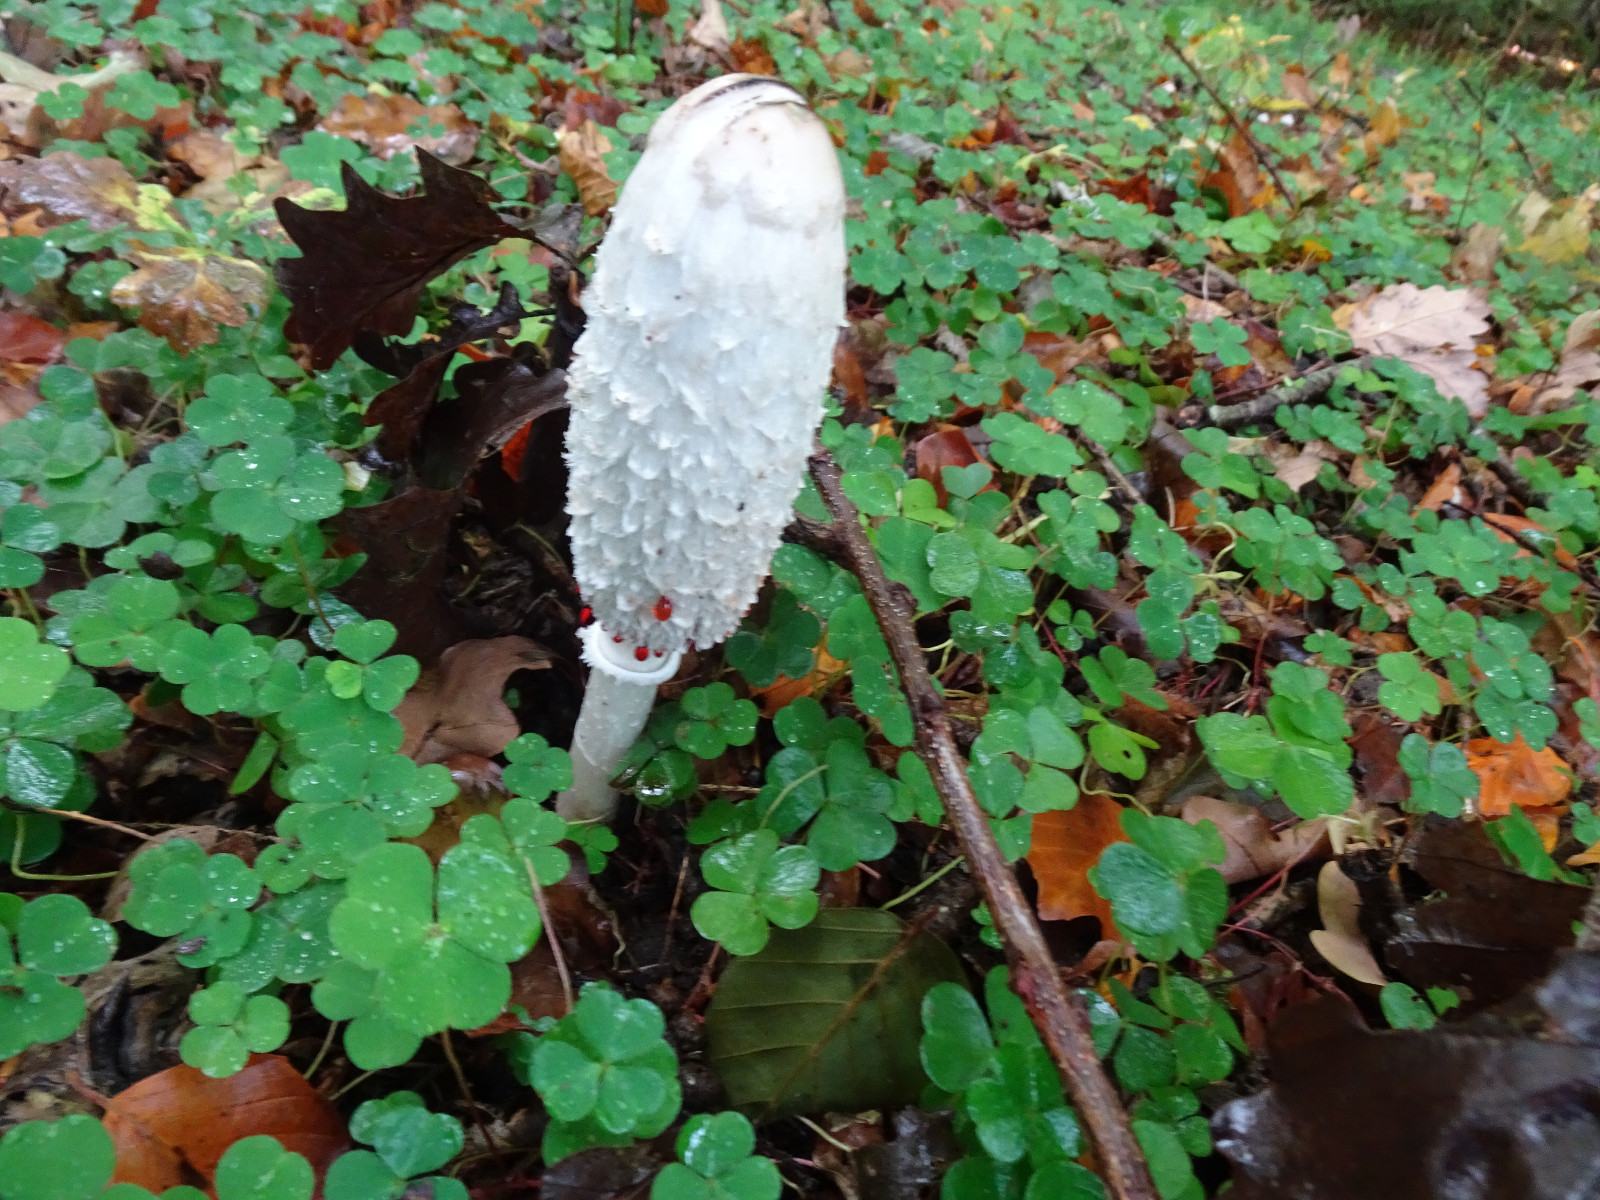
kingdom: Fungi
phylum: Basidiomycota
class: Agaricomycetes
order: Agaricales
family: Agaricaceae
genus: Coprinus
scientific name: Coprinus comatus
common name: stor parykhat
